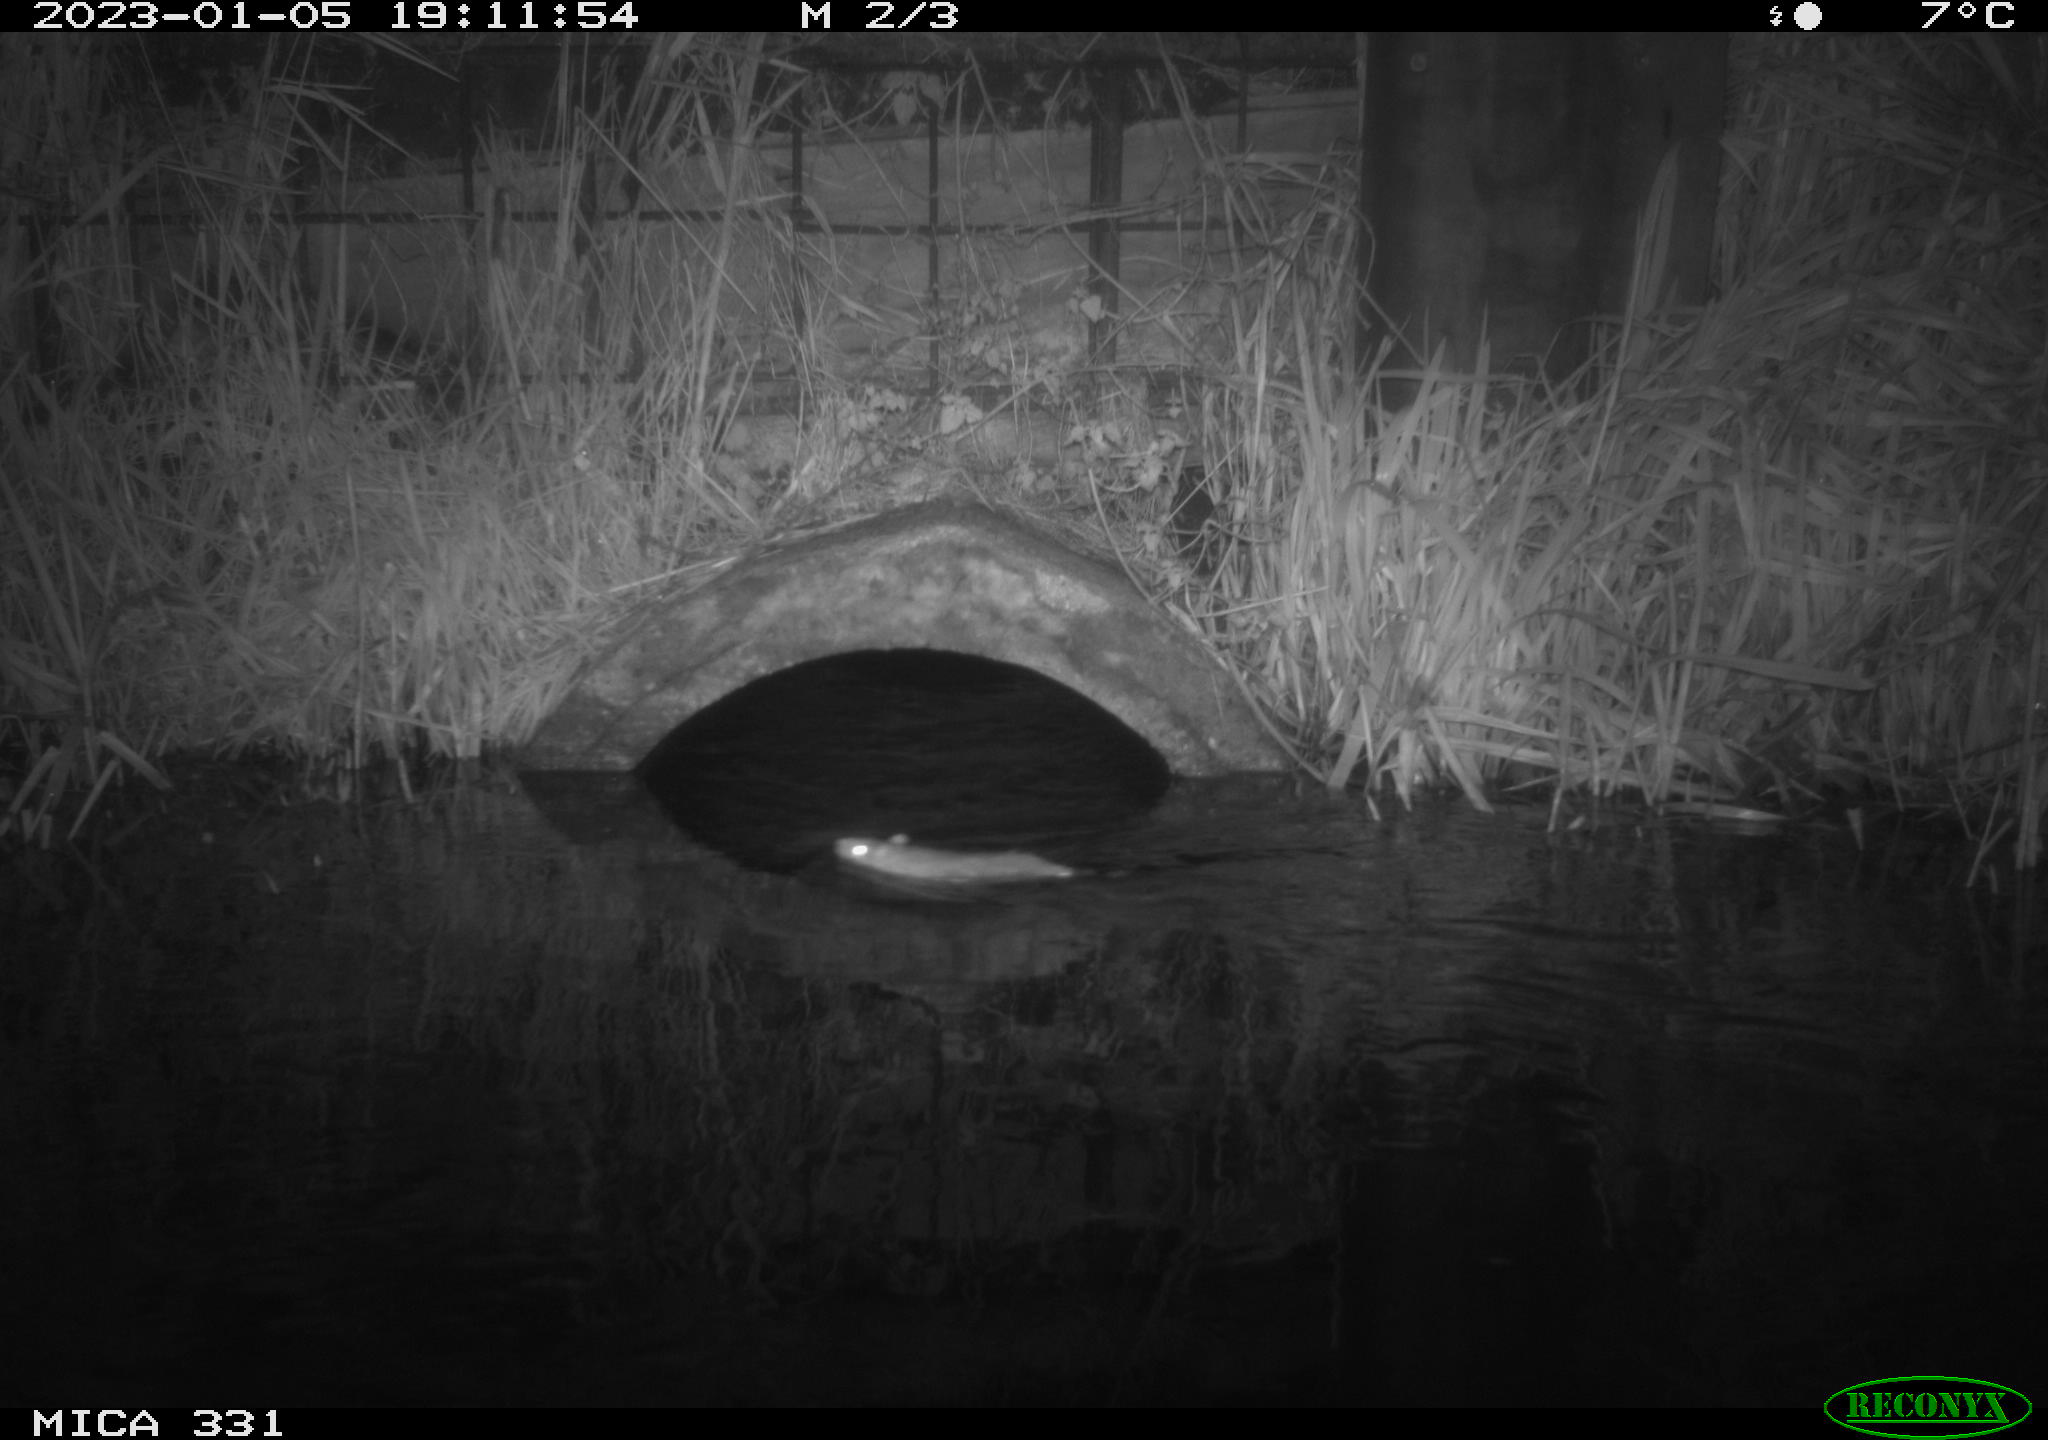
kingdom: Animalia
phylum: Chordata
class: Mammalia
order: Rodentia
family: Muridae
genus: Rattus
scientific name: Rattus norvegicus
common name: Brown rat
